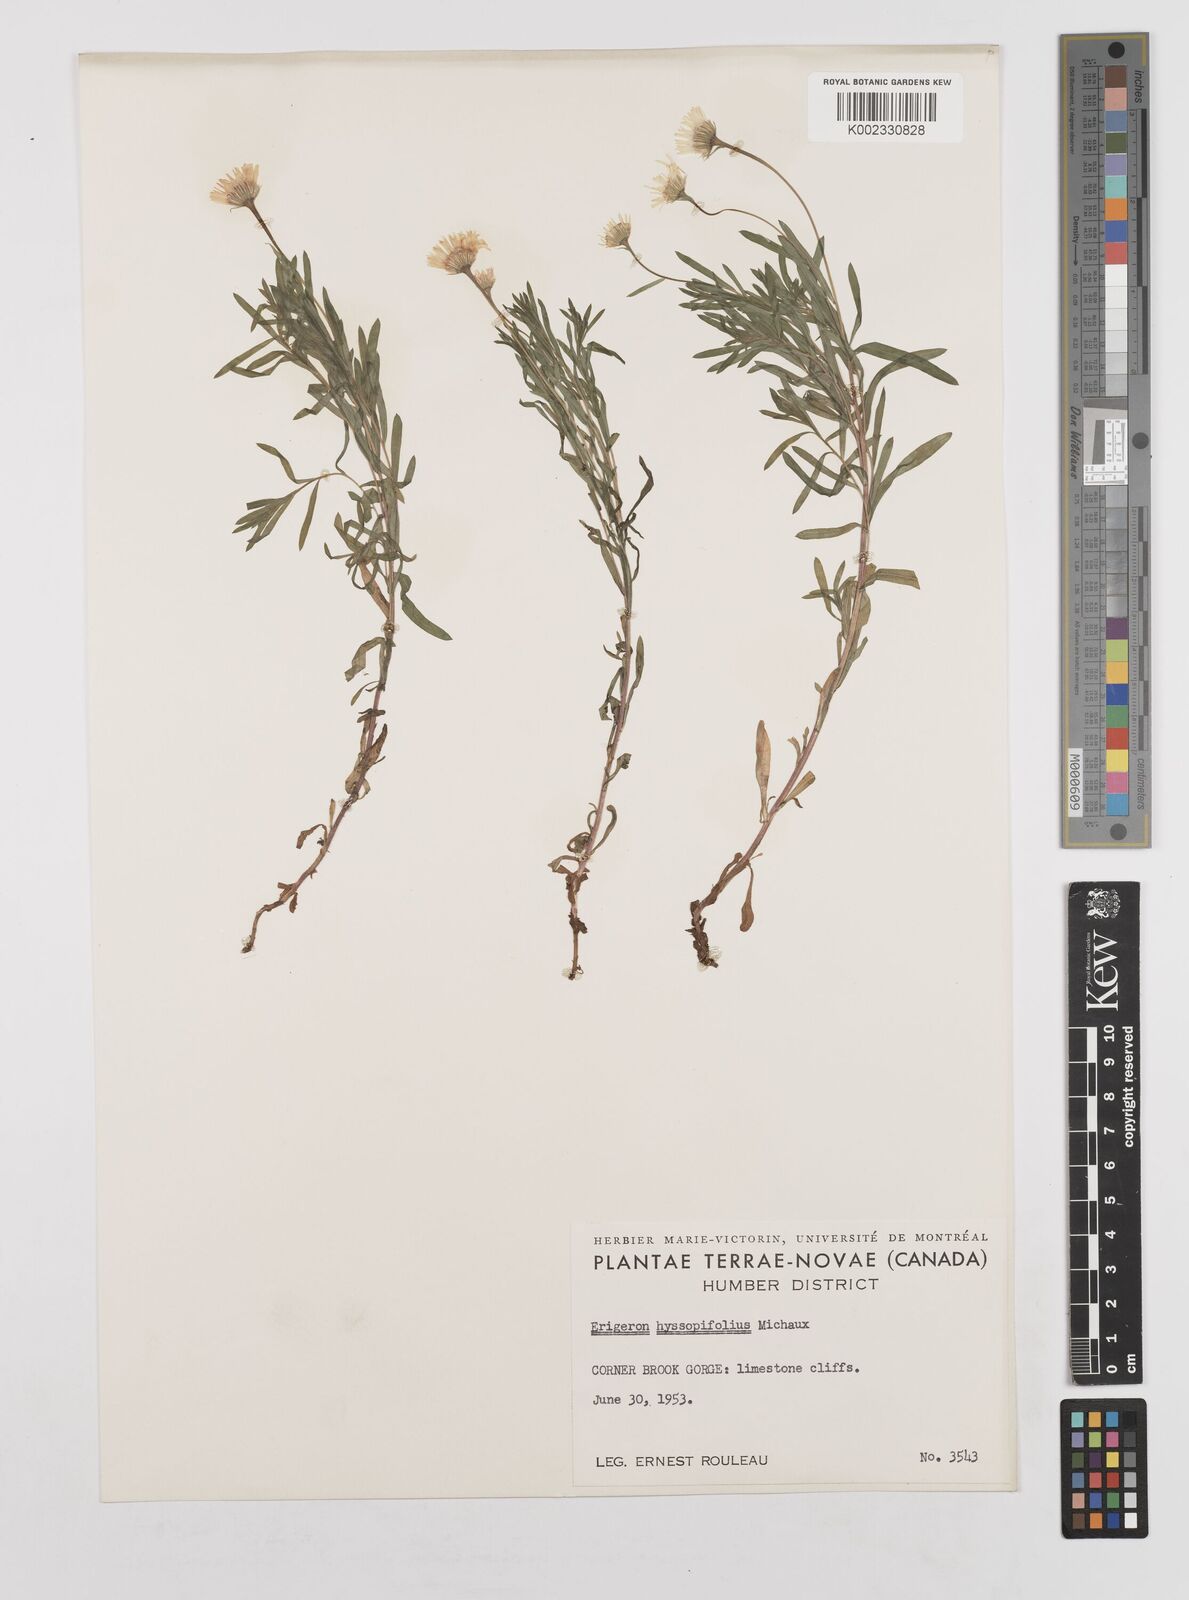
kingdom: Plantae
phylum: Tracheophyta
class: Magnoliopsida
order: Asterales
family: Asteraceae
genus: Erigeron
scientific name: Erigeron hyssopifolius
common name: Daisy fleabane
